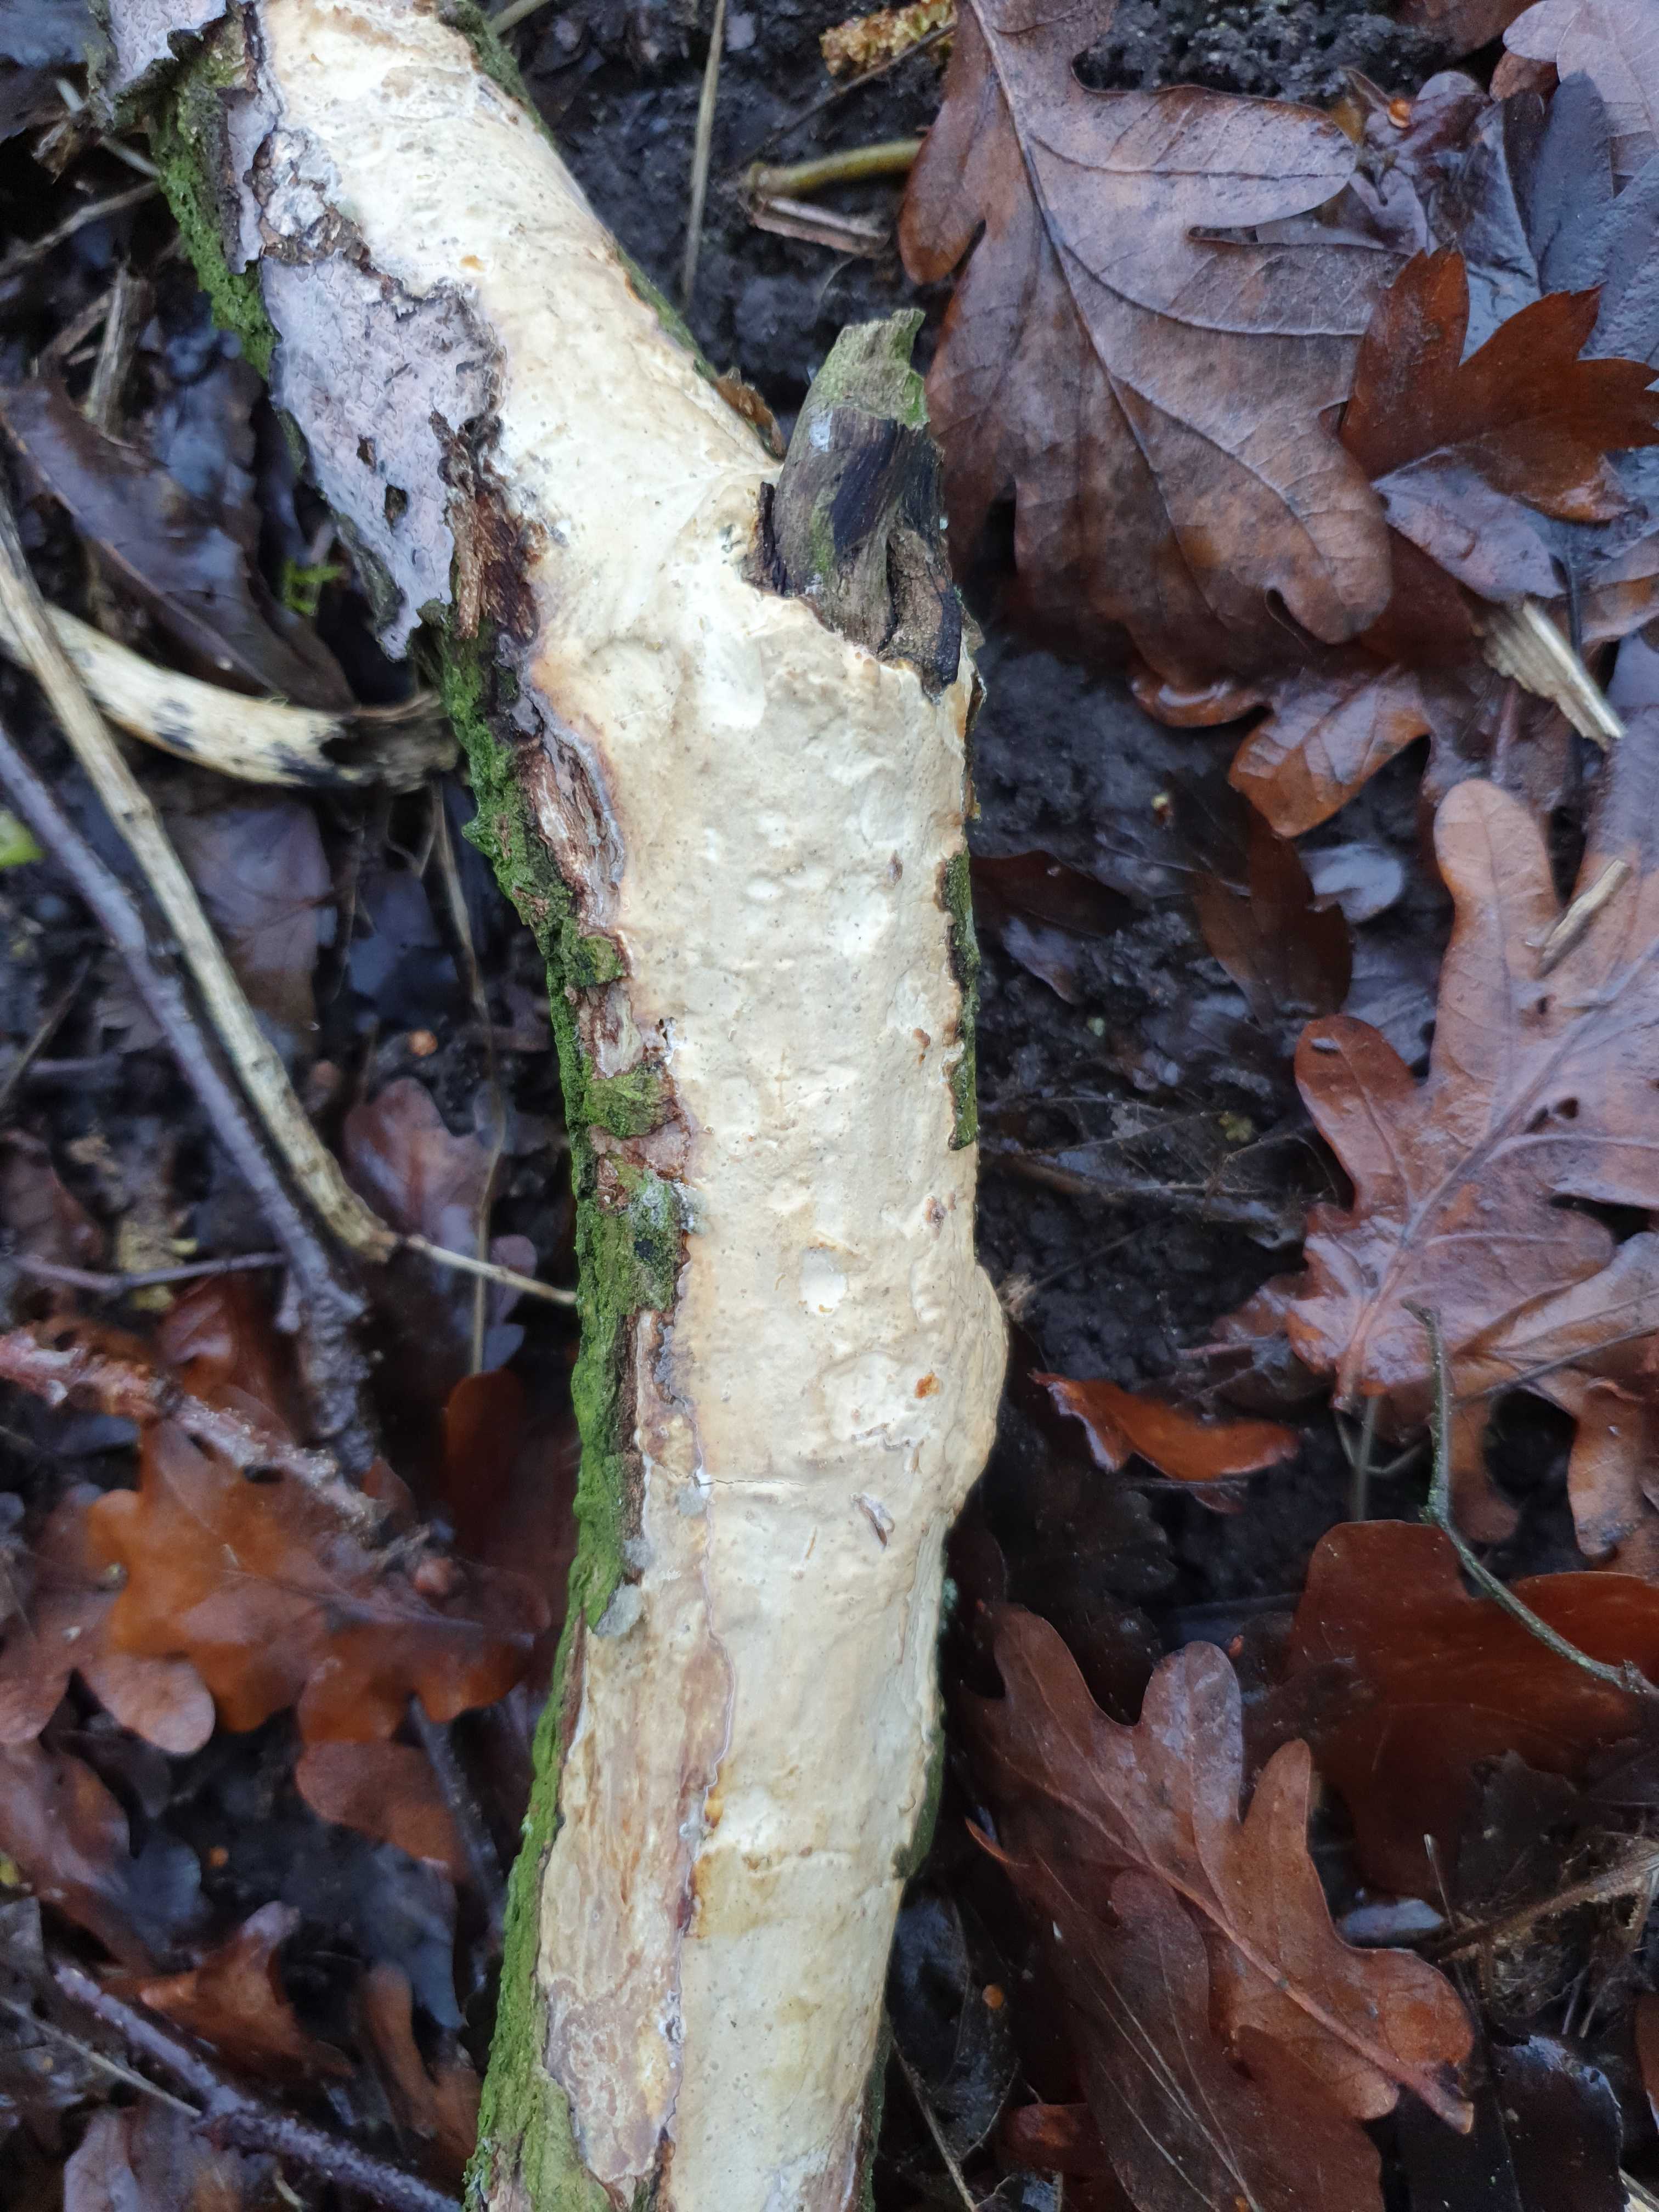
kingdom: Fungi
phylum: Basidiomycota
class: Agaricomycetes
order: Corticiales
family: Vuilleminiaceae
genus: Vuilleminia
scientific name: Vuilleminia comedens
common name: almindelig barksprænger
